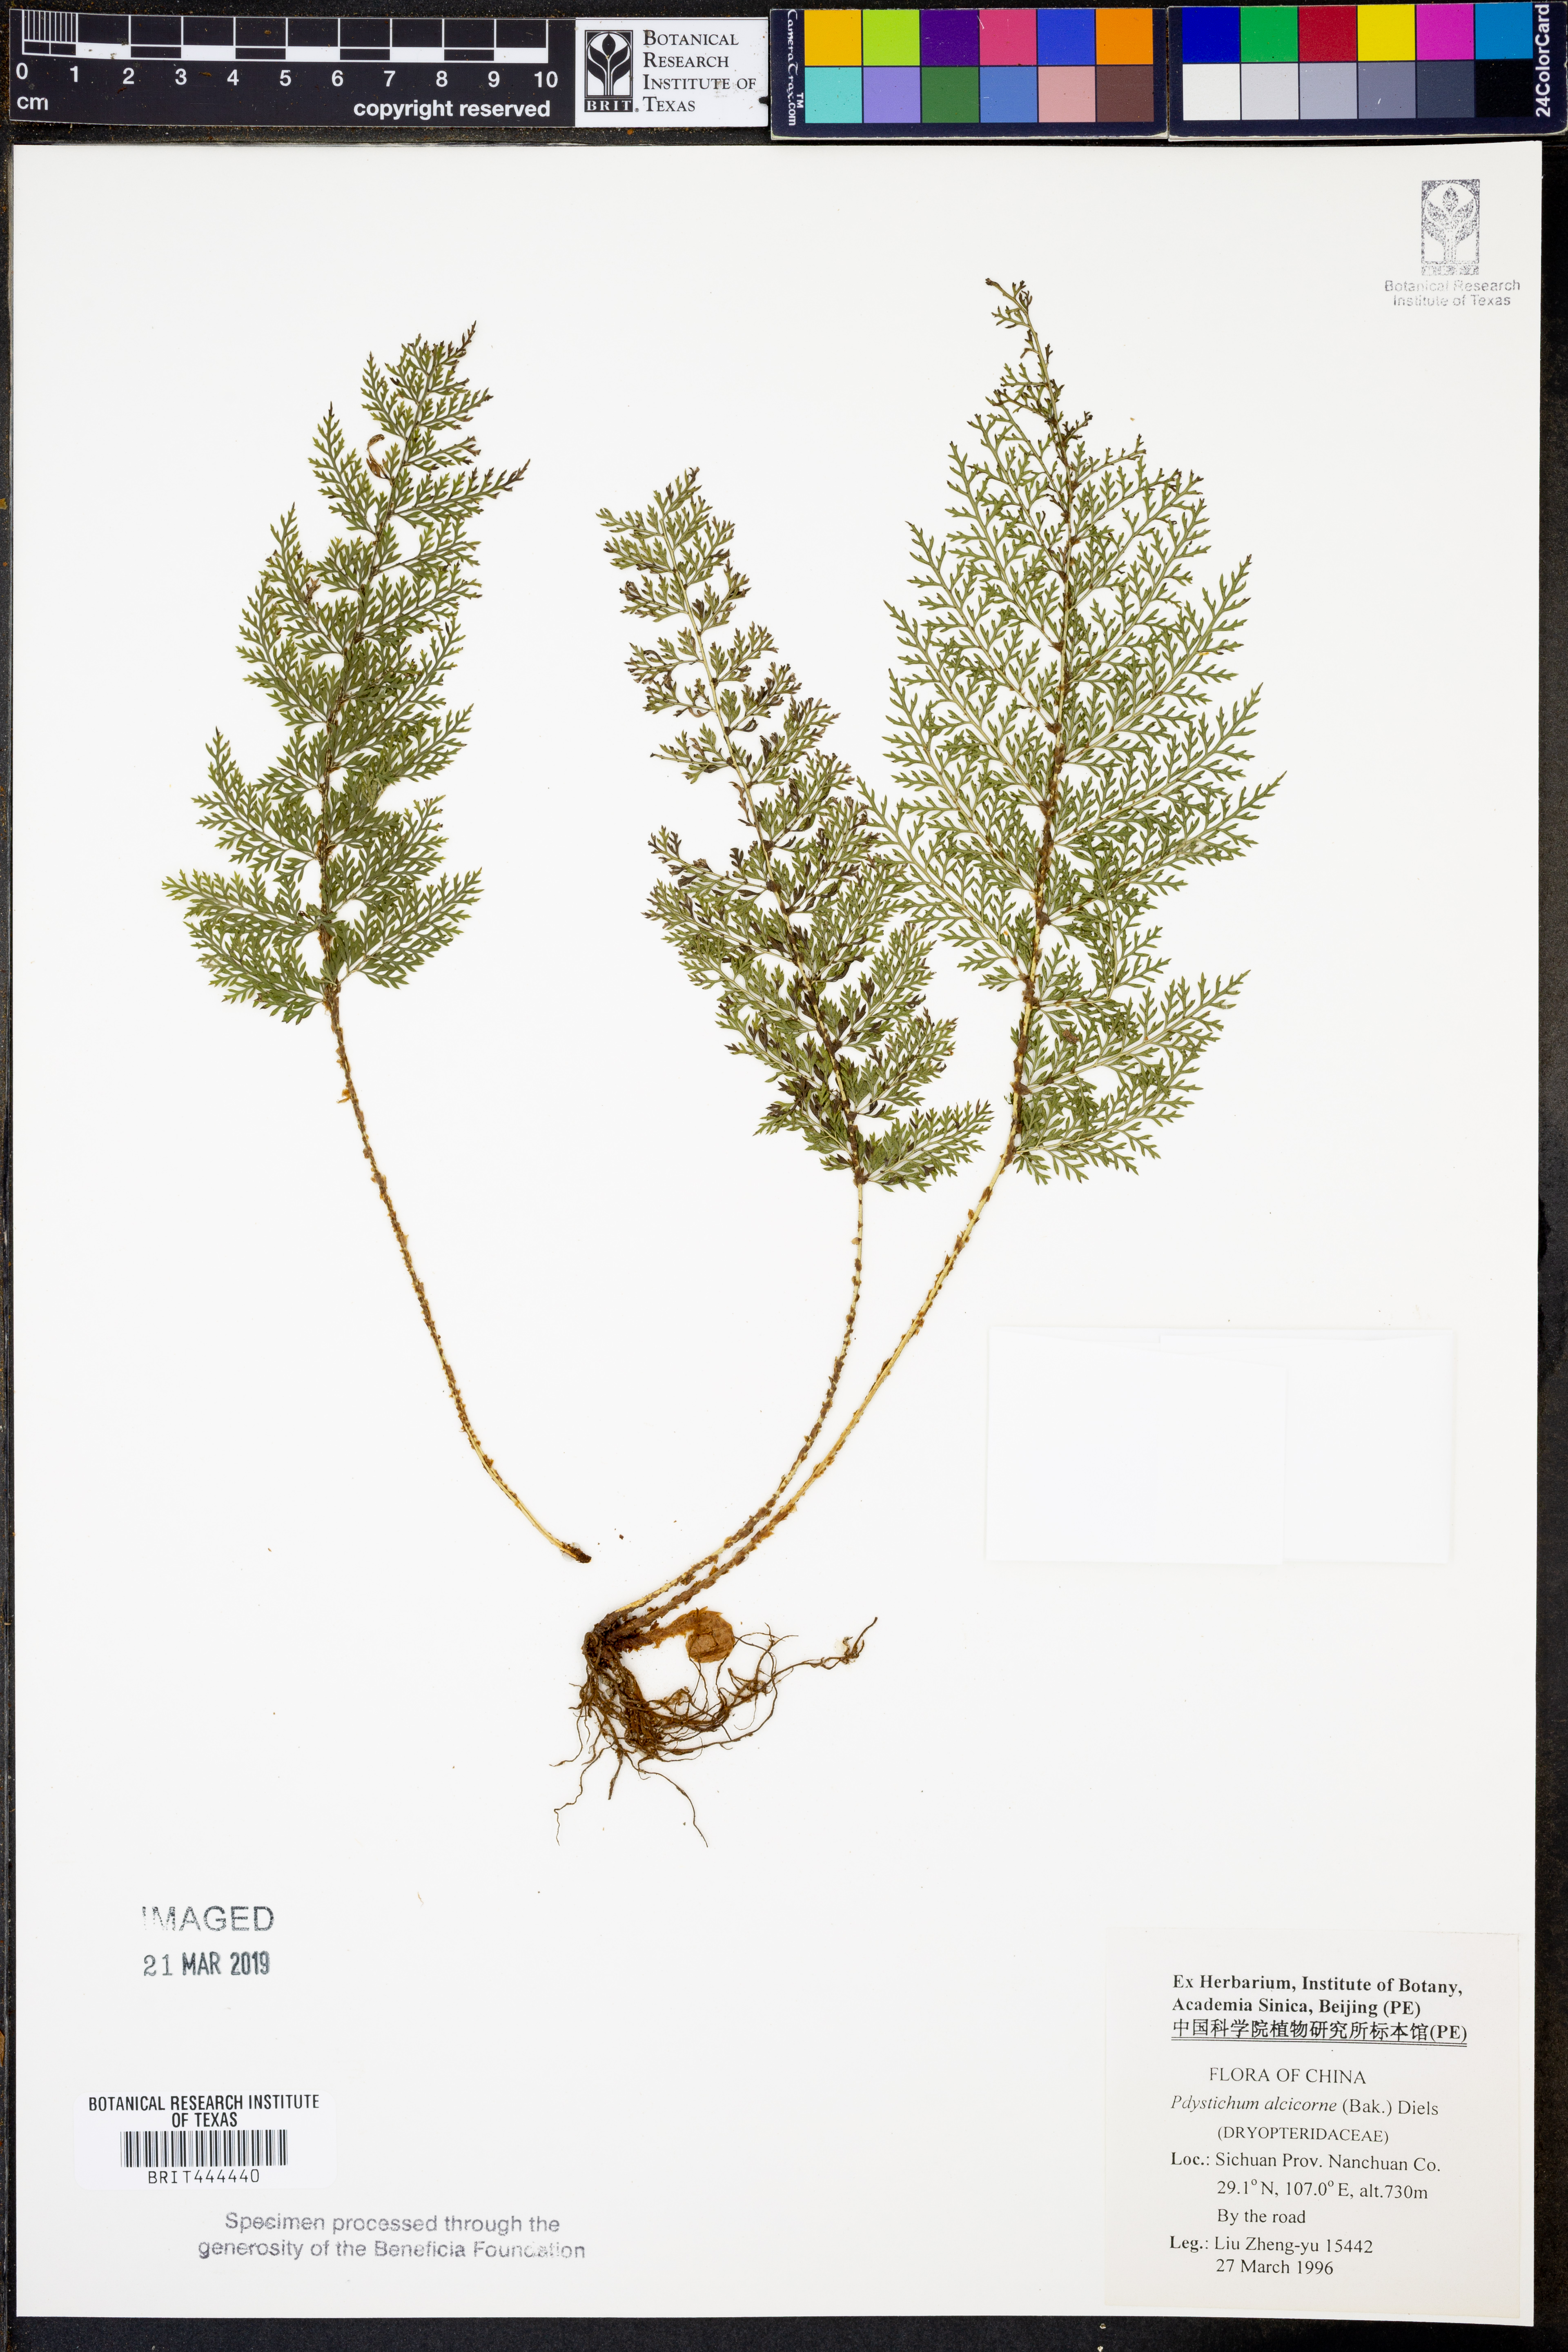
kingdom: Plantae
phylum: Tracheophyta
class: Polypodiopsida
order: Polypodiales
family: Dryopteridaceae
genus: Polystichum
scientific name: Polystichum alcicorne
